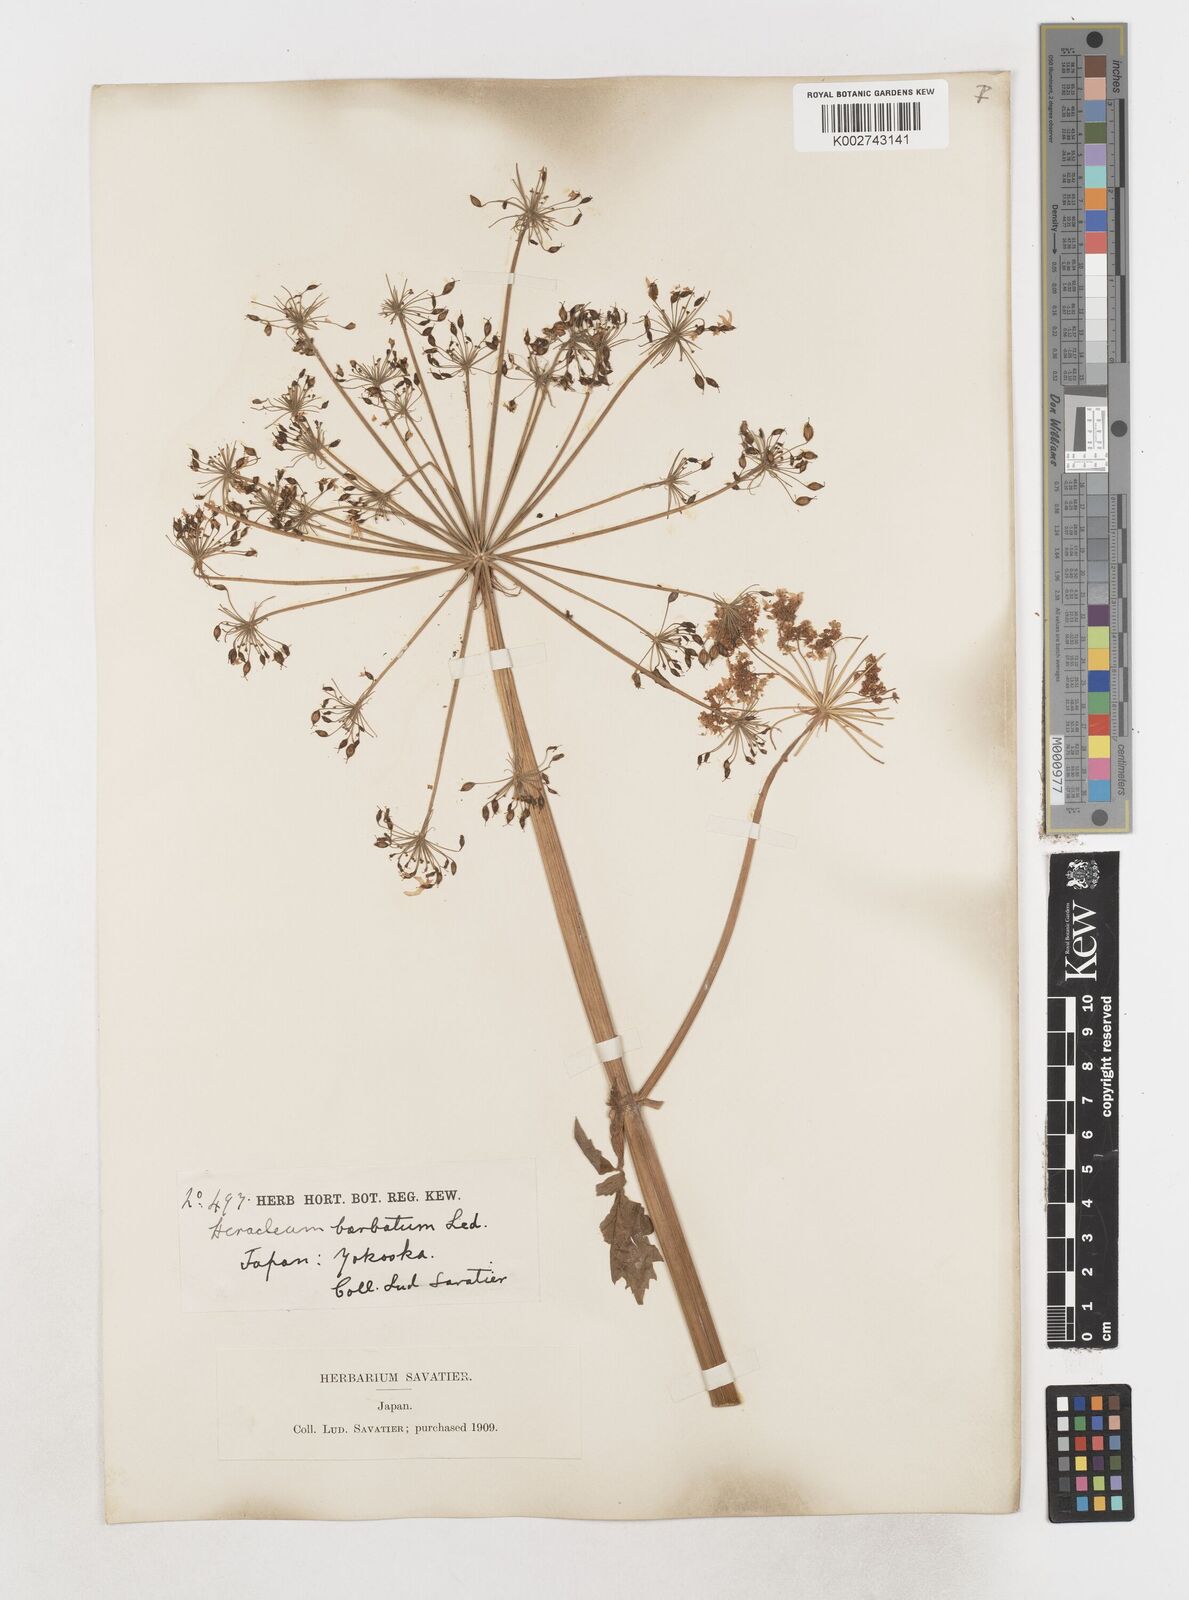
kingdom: Plantae
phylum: Tracheophyta
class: Magnoliopsida
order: Apiales
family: Apiaceae
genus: Heracleum
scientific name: Heracleum dissectum
